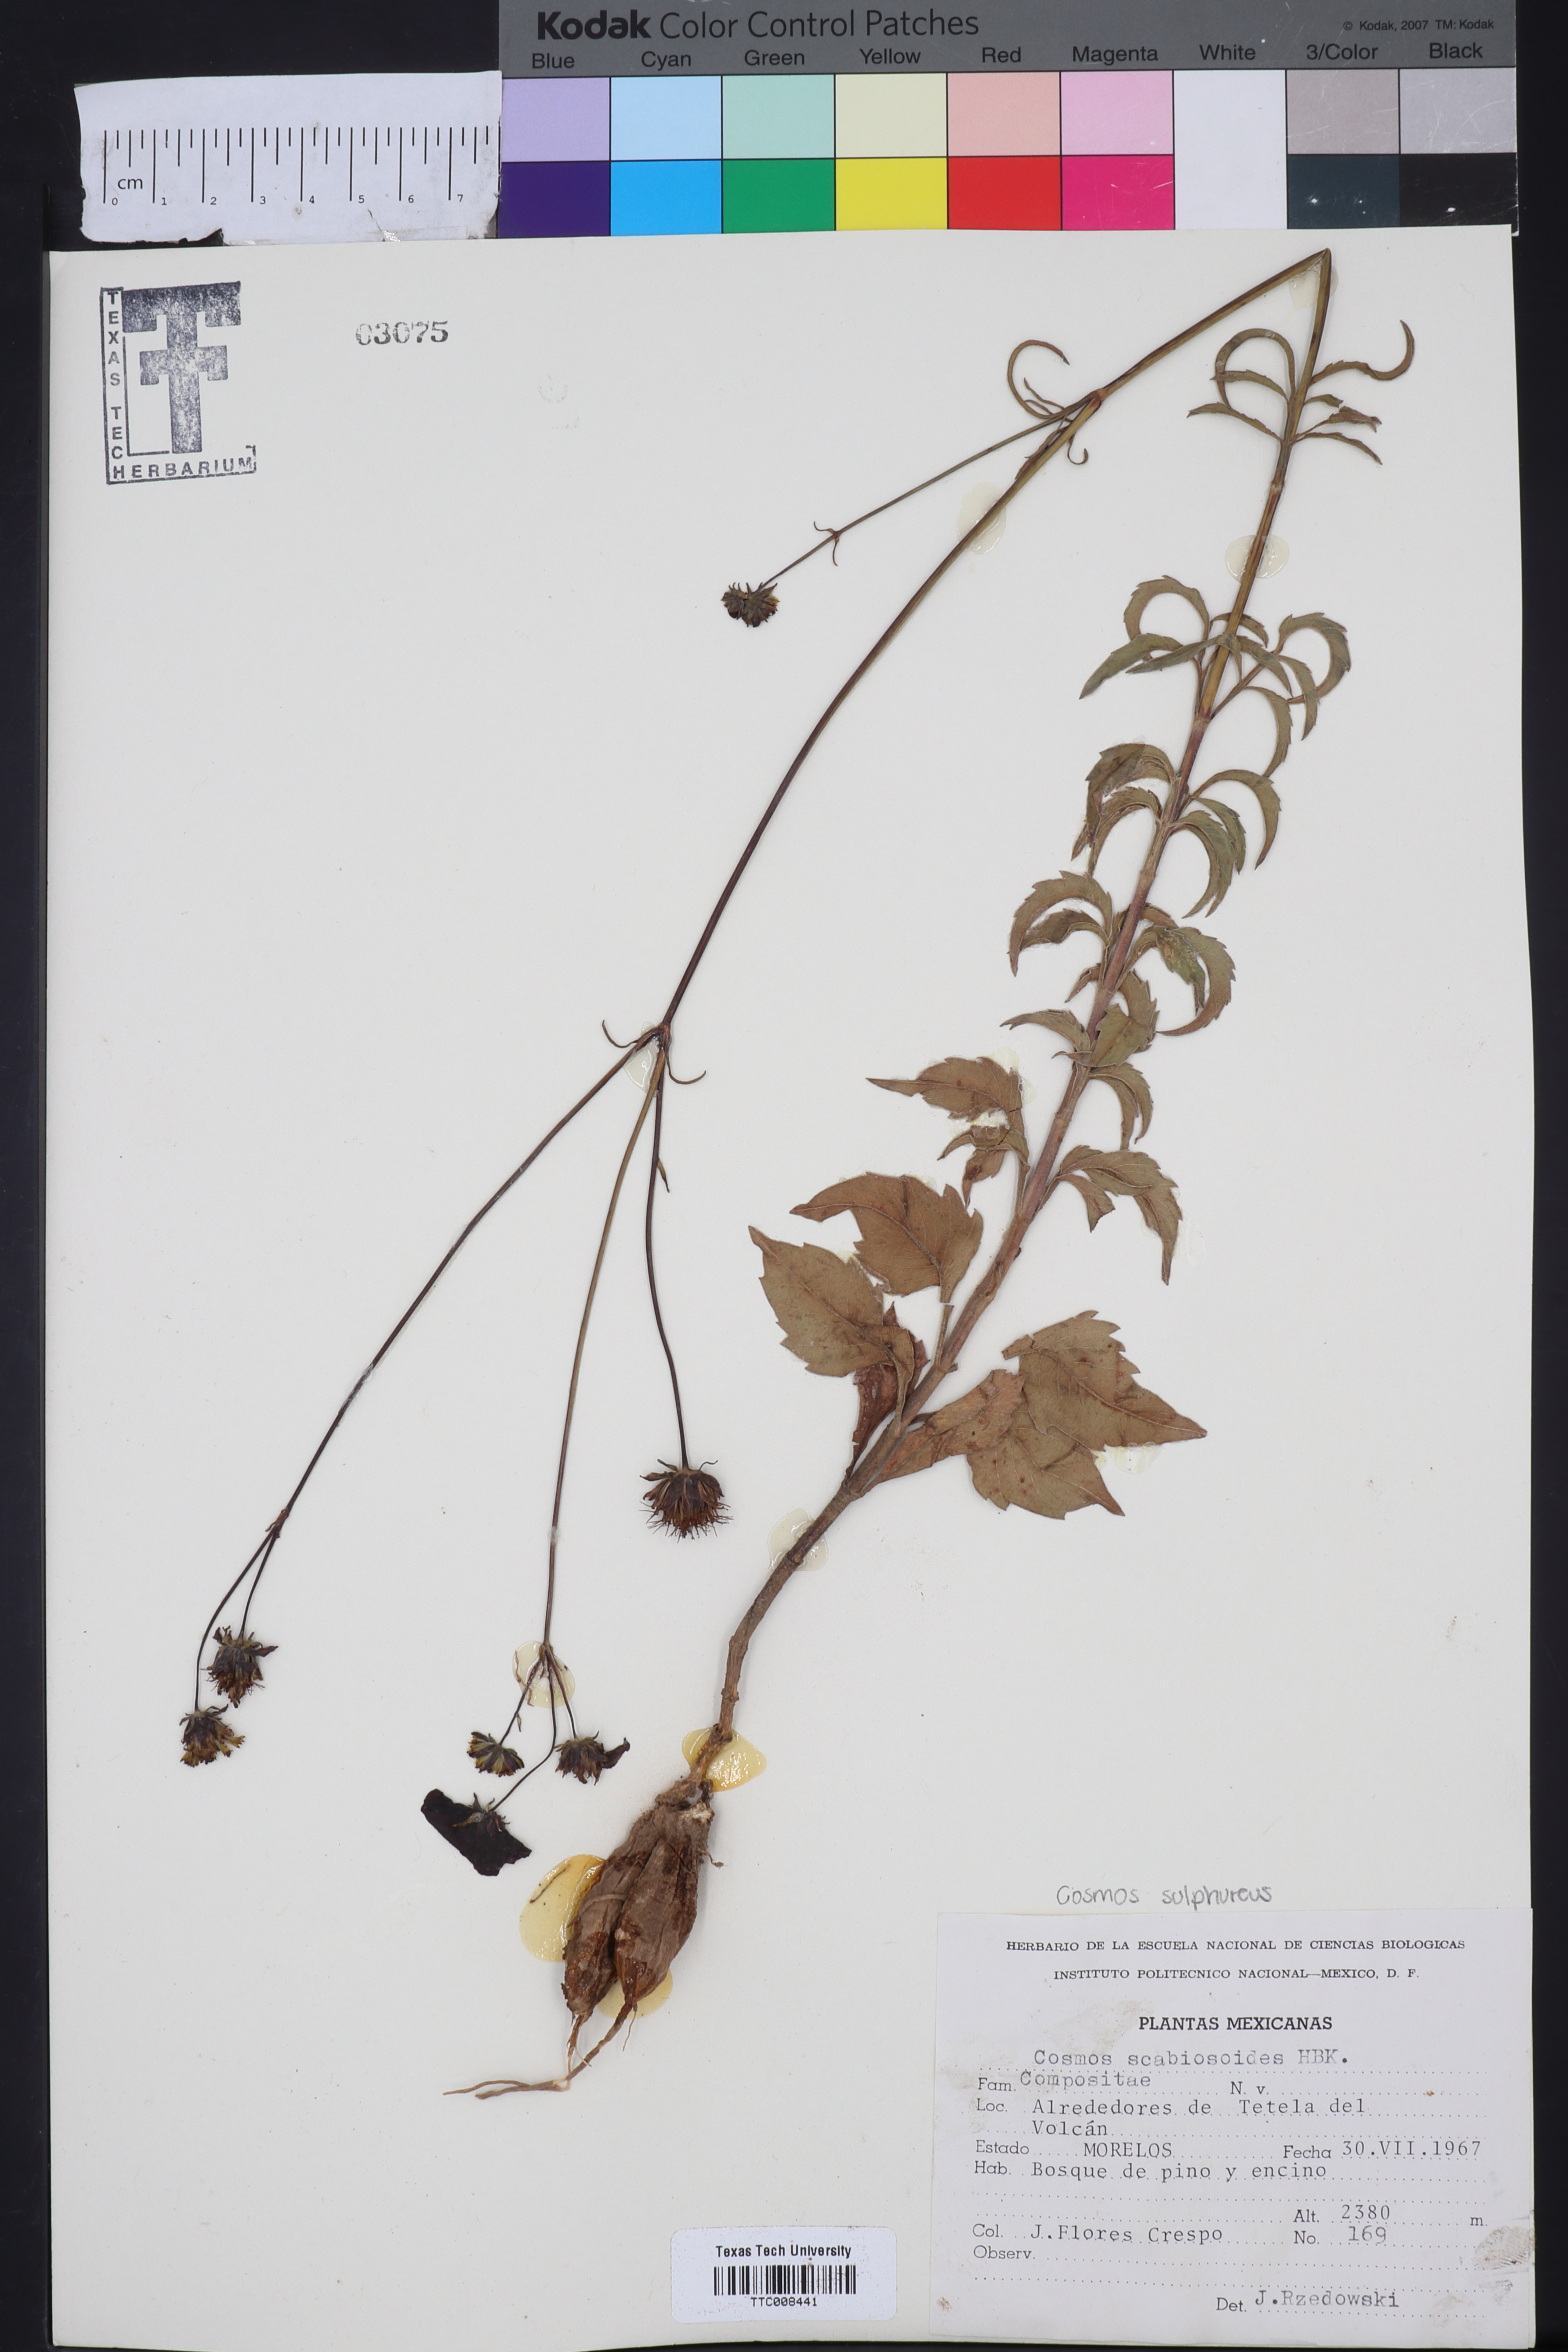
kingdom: Plantae
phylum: Tracheophyta
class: Magnoliopsida
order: Asterales
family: Asteraceae
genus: Cosmos
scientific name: Cosmos scabiosoides
